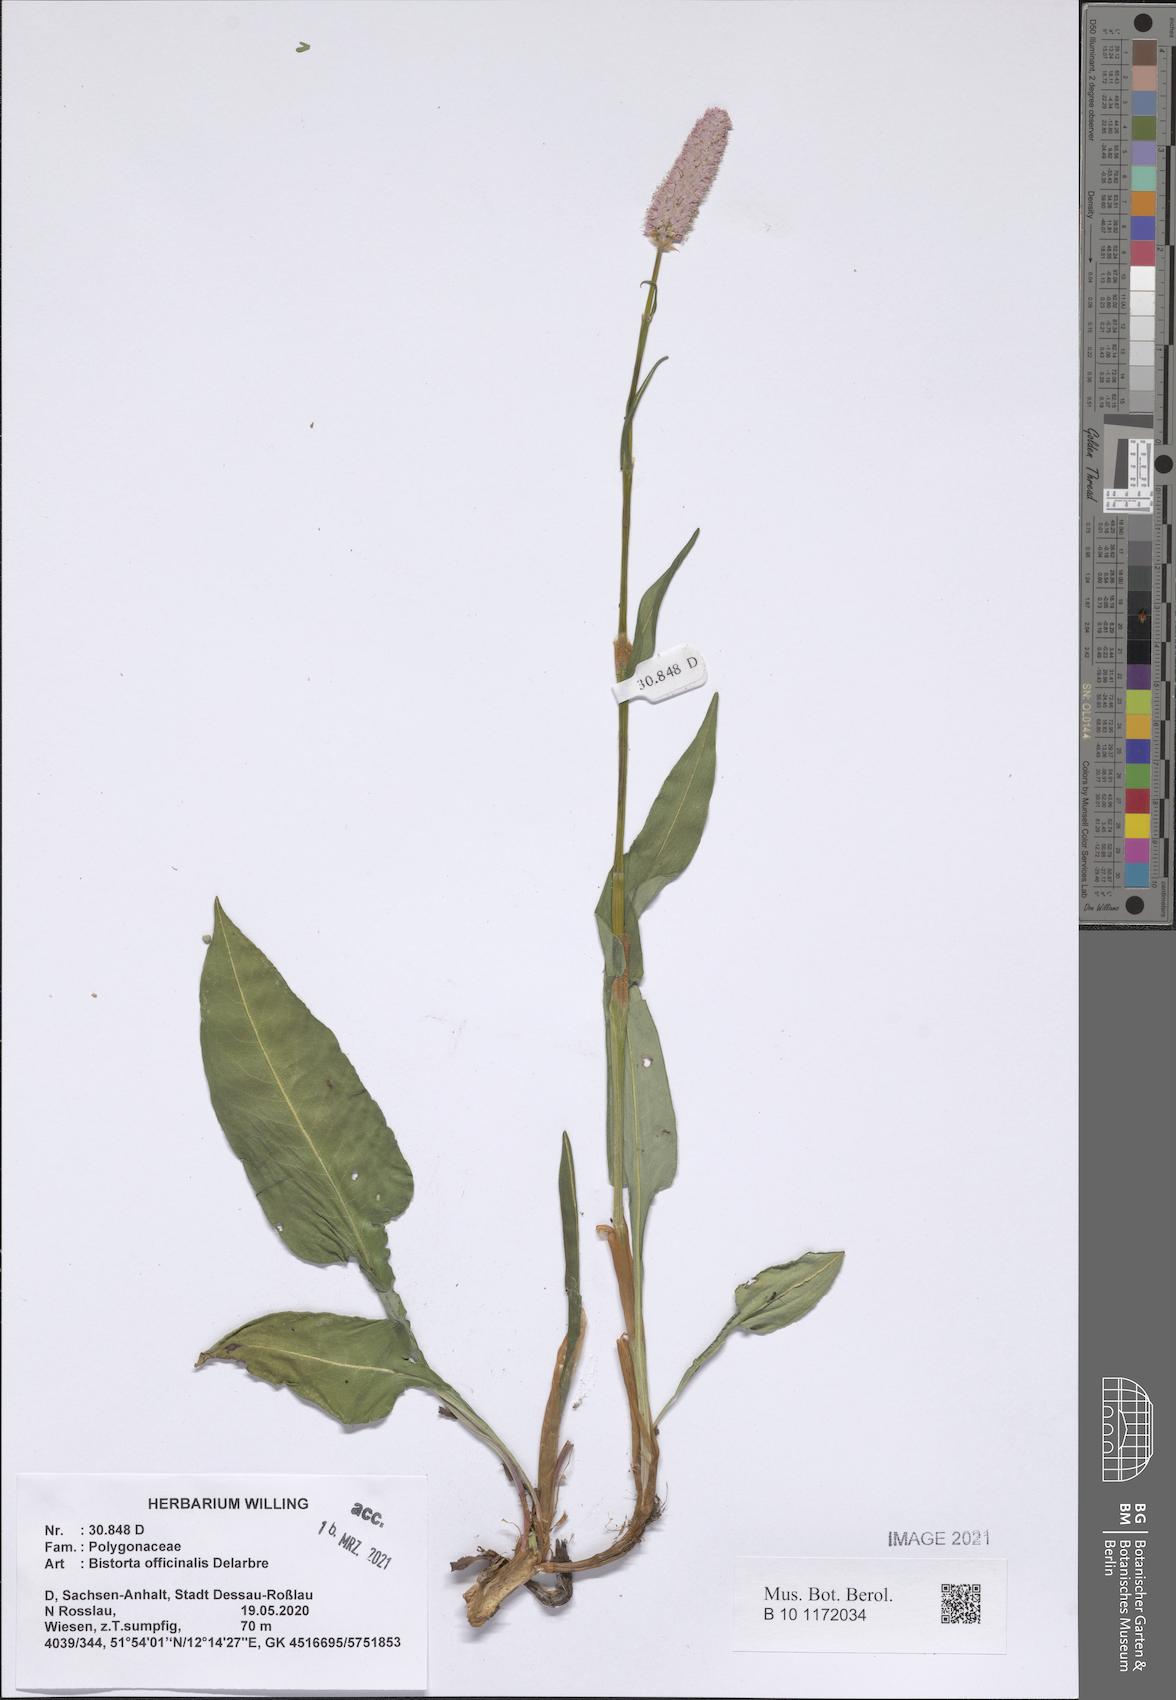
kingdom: Plantae
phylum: Tracheophyta
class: Magnoliopsida
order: Caryophyllales
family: Polygonaceae
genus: Bistorta
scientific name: Bistorta officinalis
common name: Common bistort
